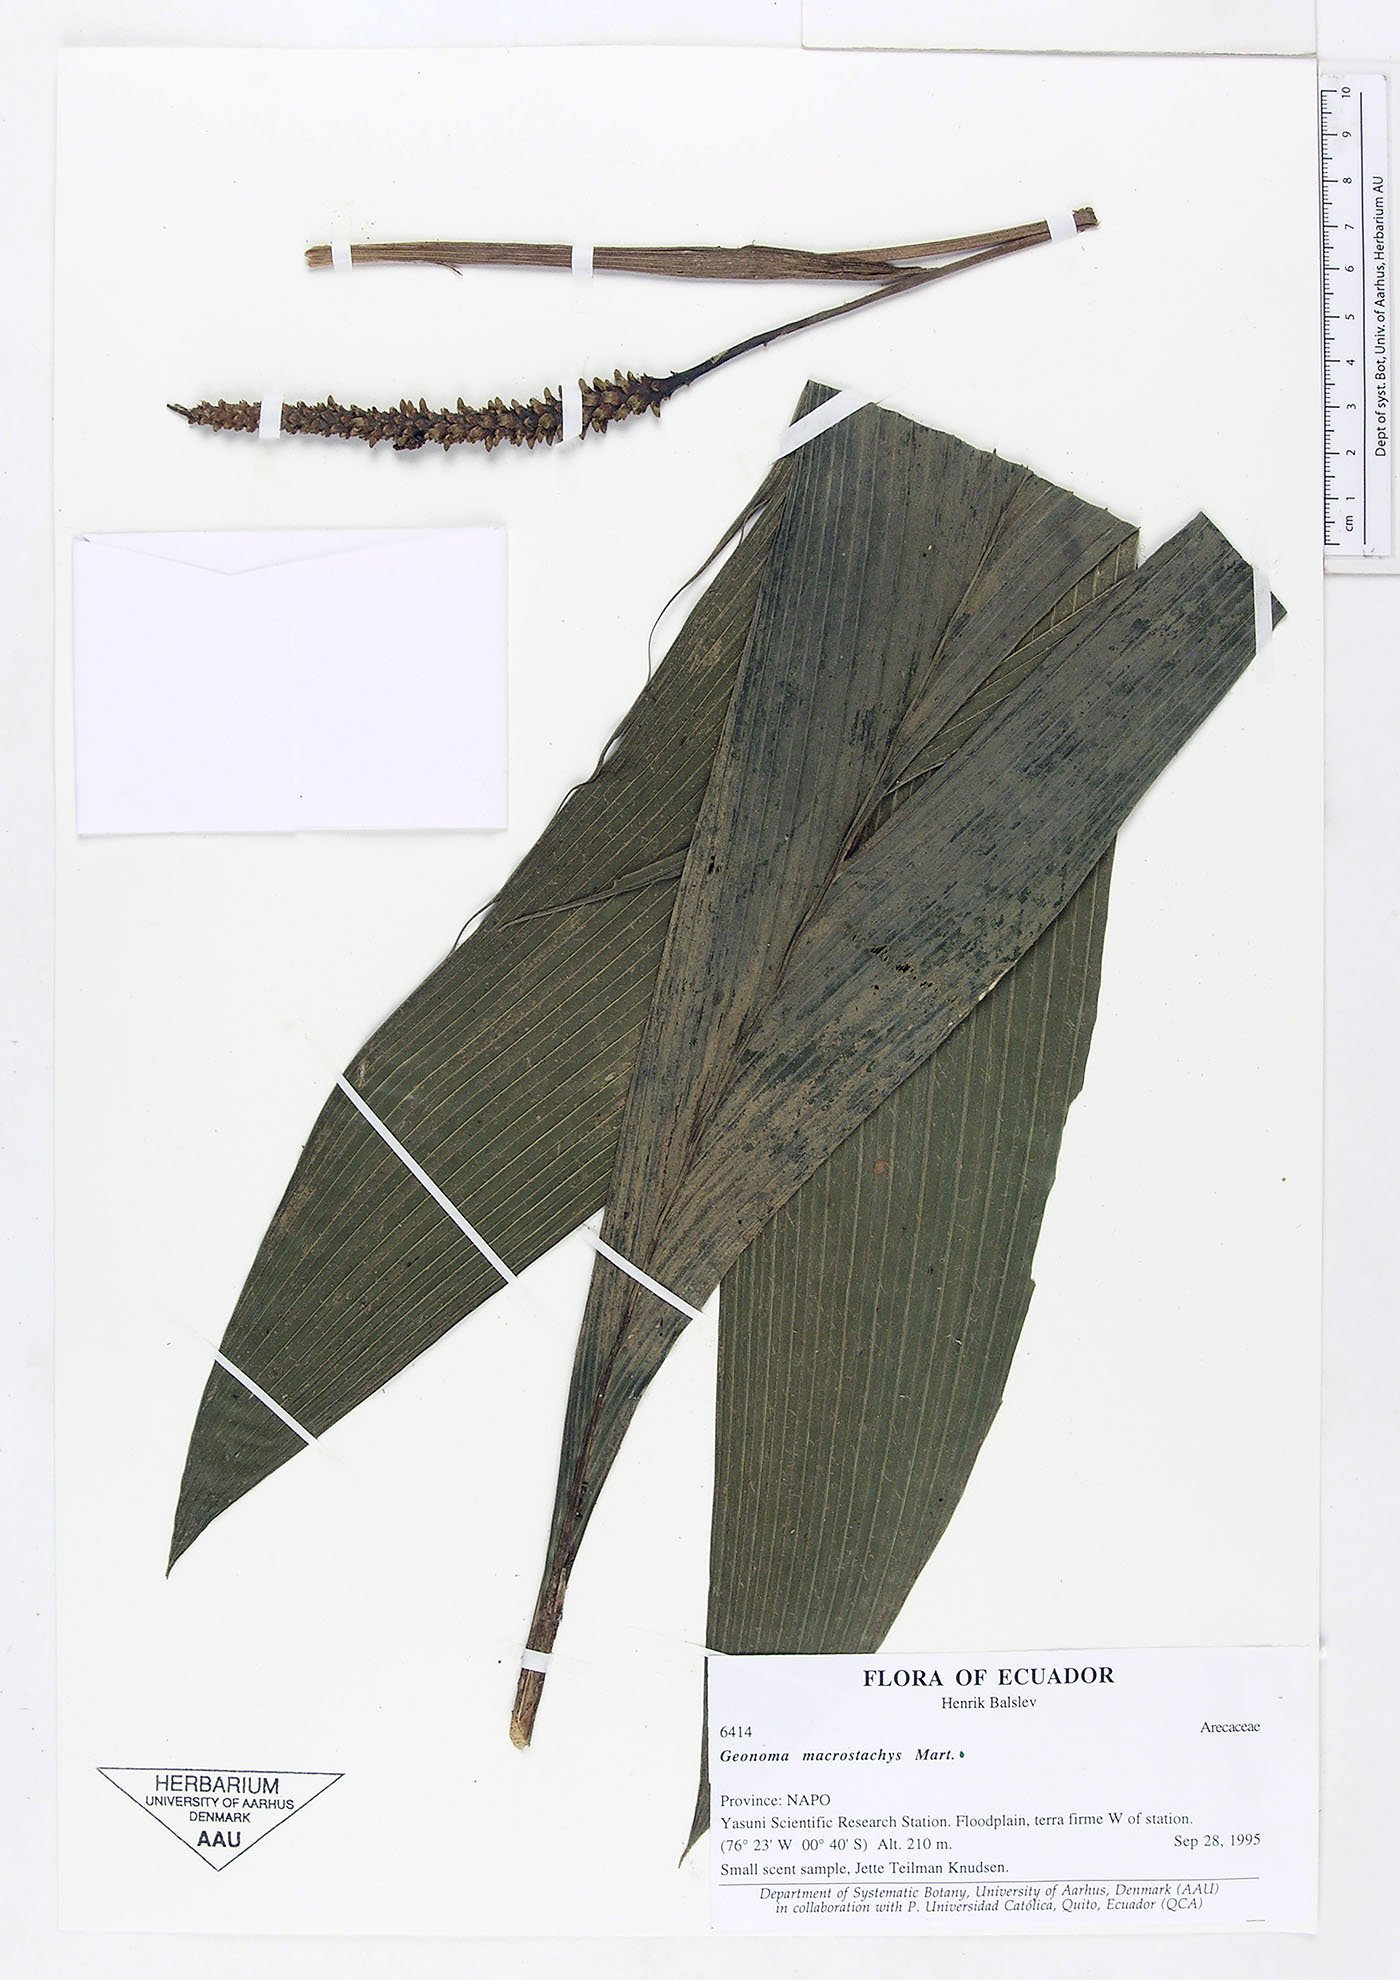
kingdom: Plantae
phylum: Tracheophyta
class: Liliopsida
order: Arecales
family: Arecaceae
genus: Geonoma
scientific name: Geonoma macrostachys
